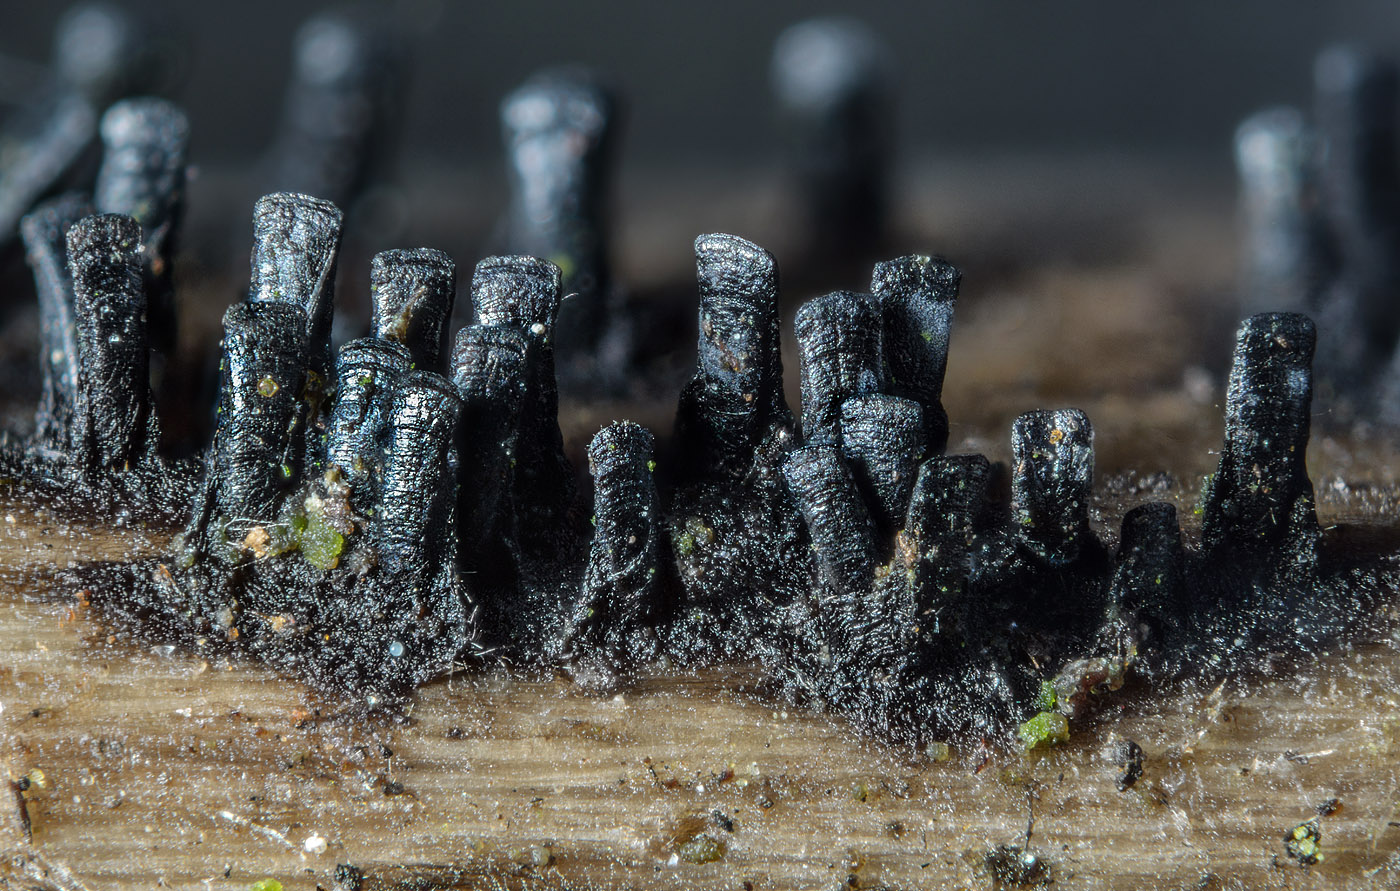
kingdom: Fungi
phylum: Ascomycota
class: Eurotiomycetes
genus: Glyphium
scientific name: Glyphium elatum
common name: kuløkse
